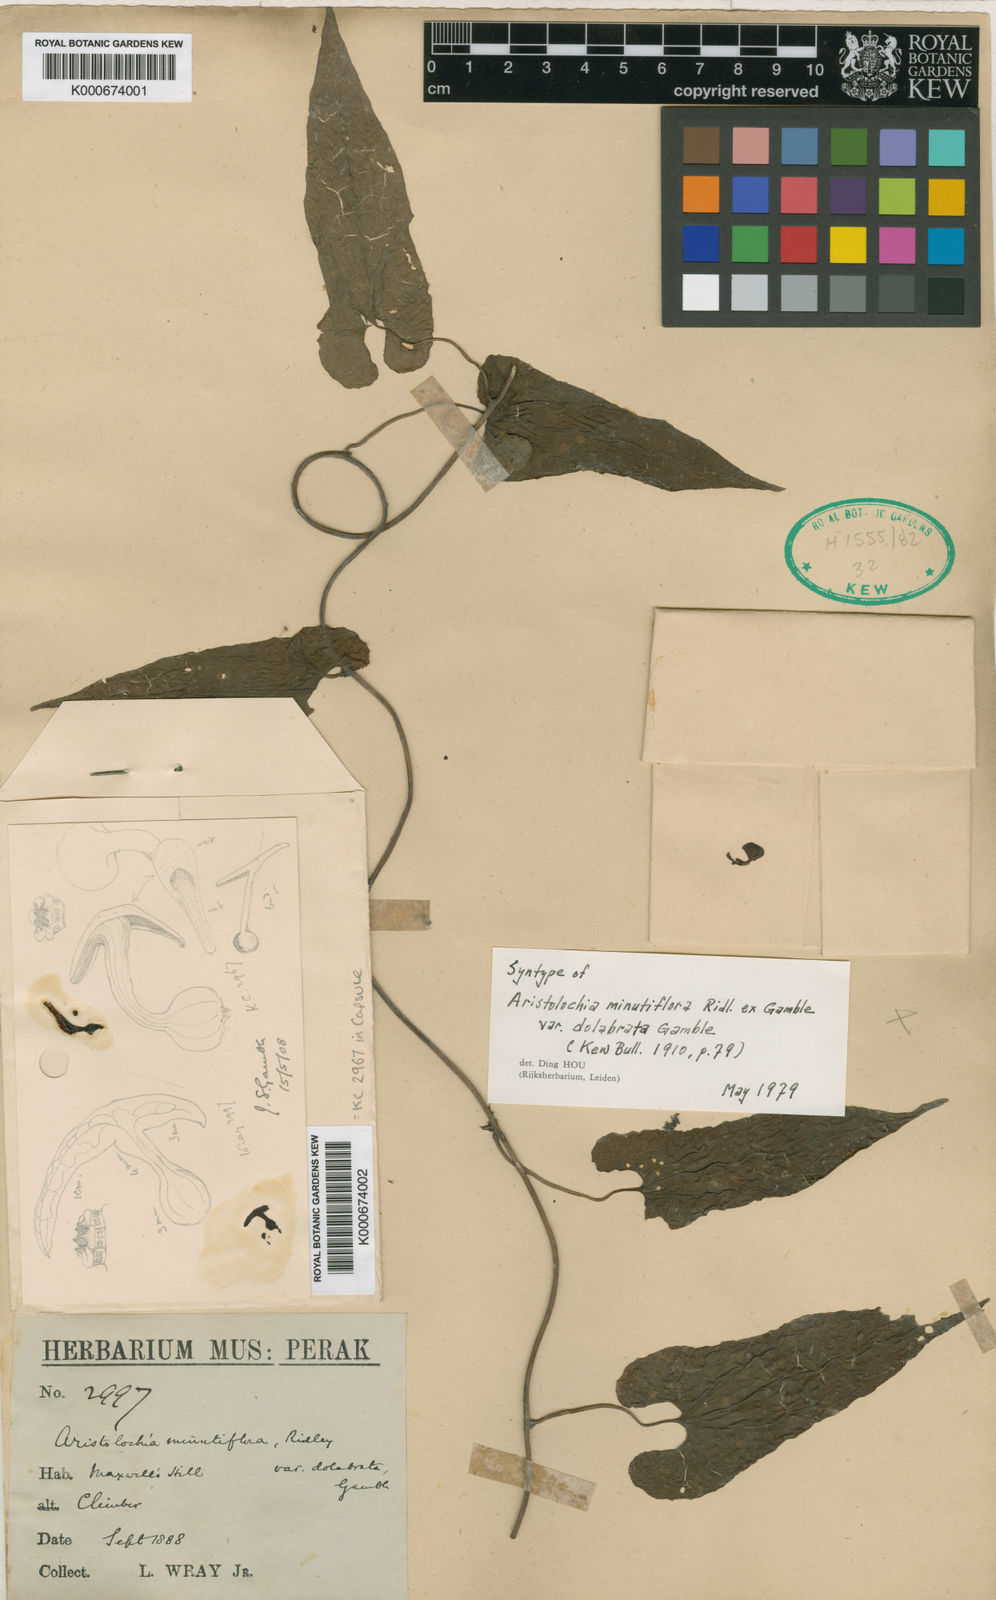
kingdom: Plantae
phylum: Tracheophyta
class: Magnoliopsida
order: Piperales
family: Aristolochiaceae
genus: Aristolochia
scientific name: Aristolochia minutiflora
